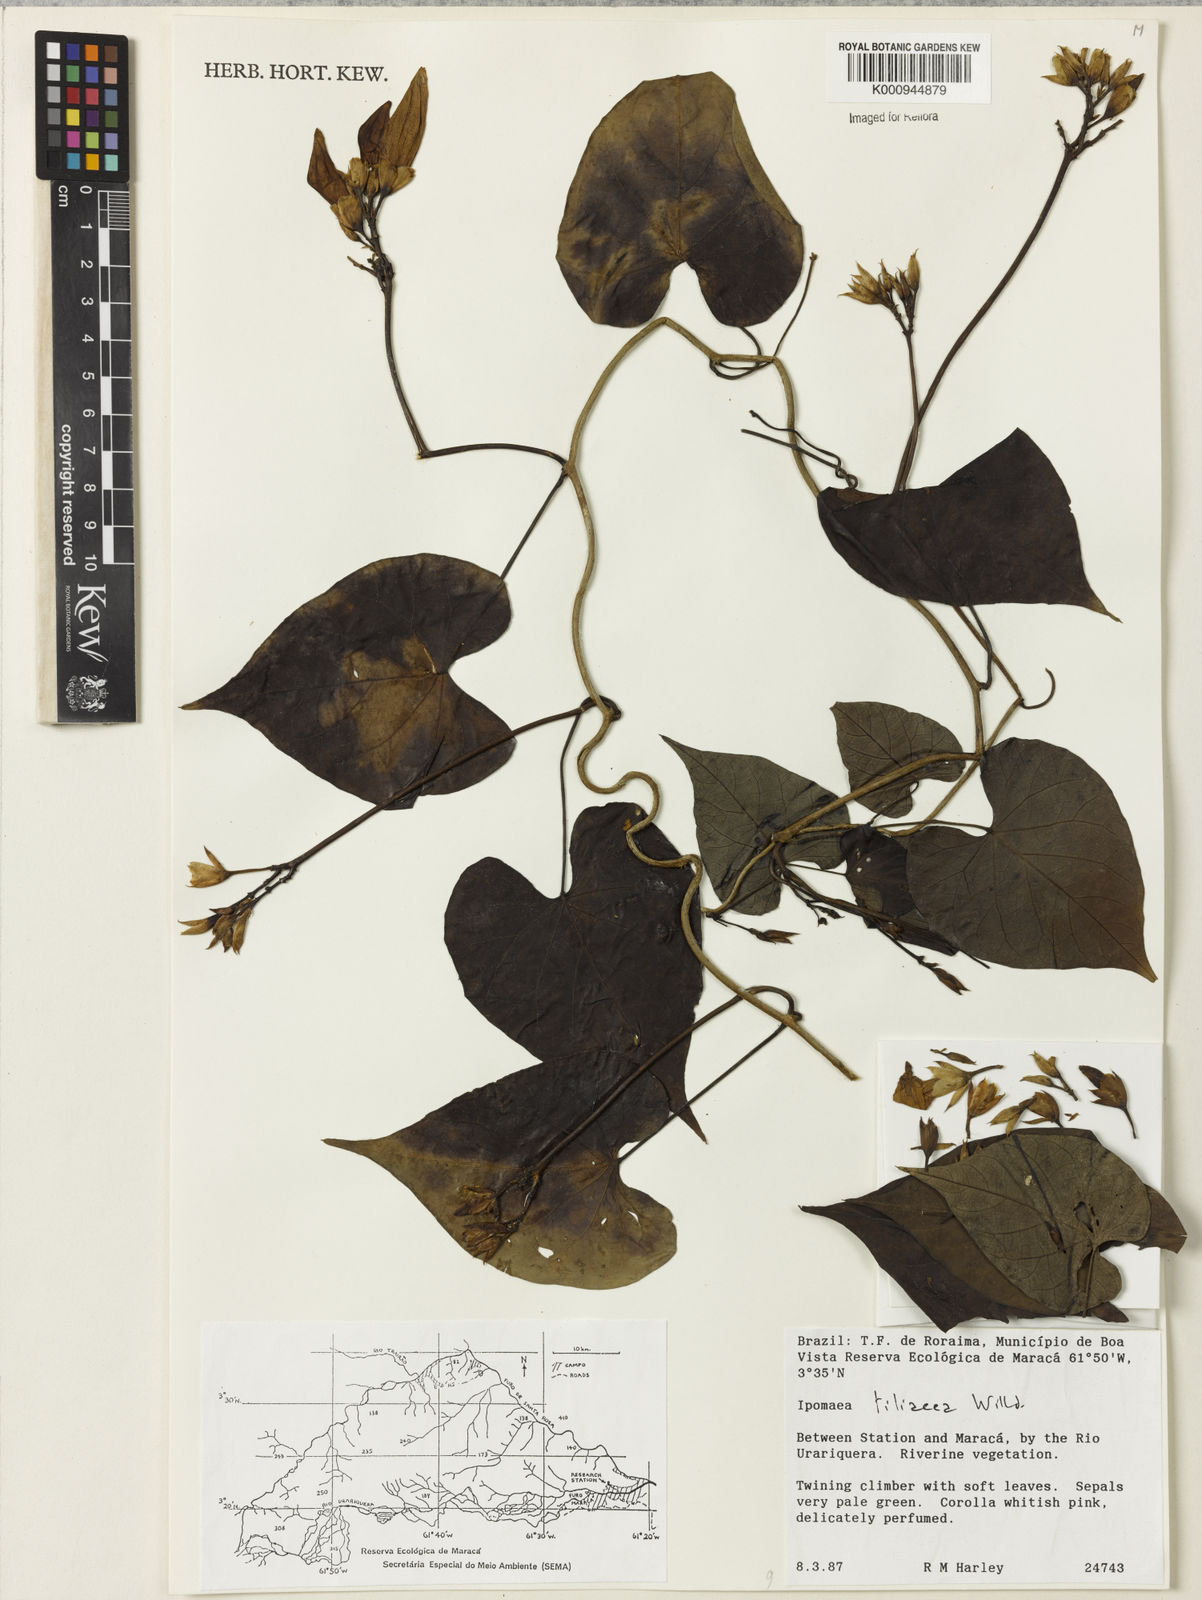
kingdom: Plantae
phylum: Tracheophyta
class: Magnoliopsida
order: Solanales
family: Convolvulaceae
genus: Ipomoea
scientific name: Ipomoea tiliacea
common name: Wild potato vine
